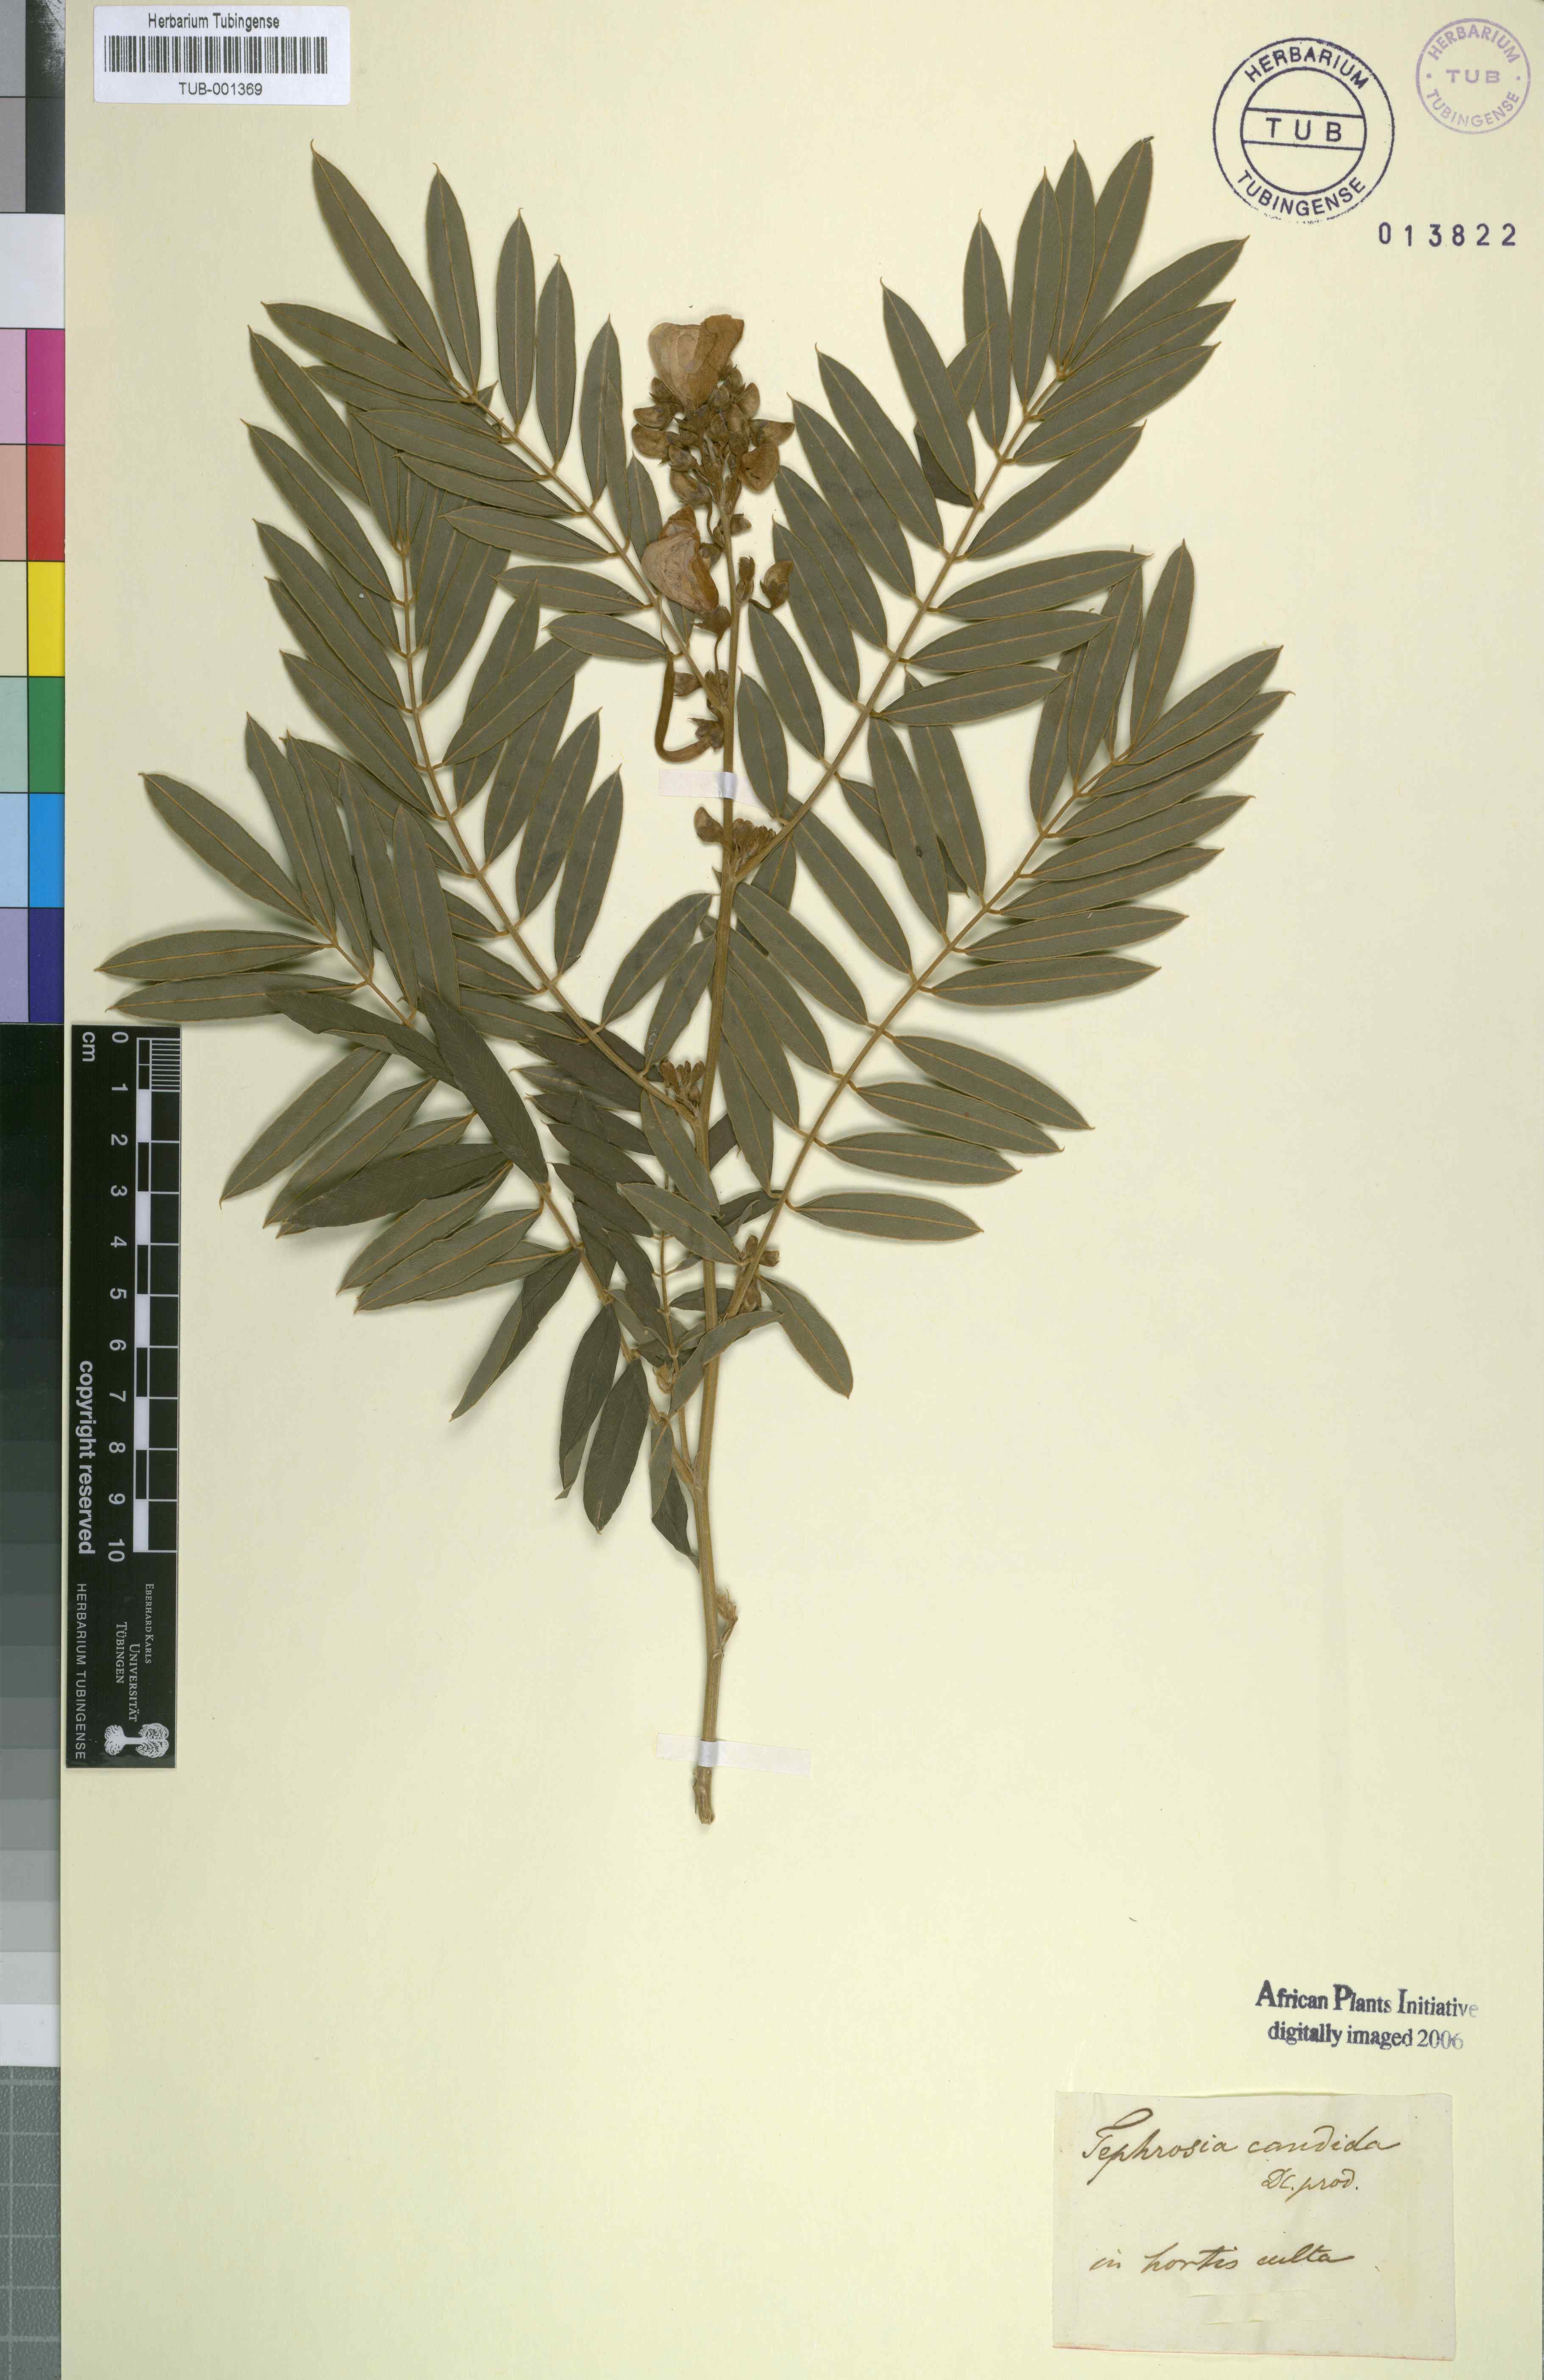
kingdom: Plantae
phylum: Tracheophyta
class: Magnoliopsida
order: Fabales
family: Fabaceae
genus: Tephrosia
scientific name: Tephrosia candida
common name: White tephrosia
